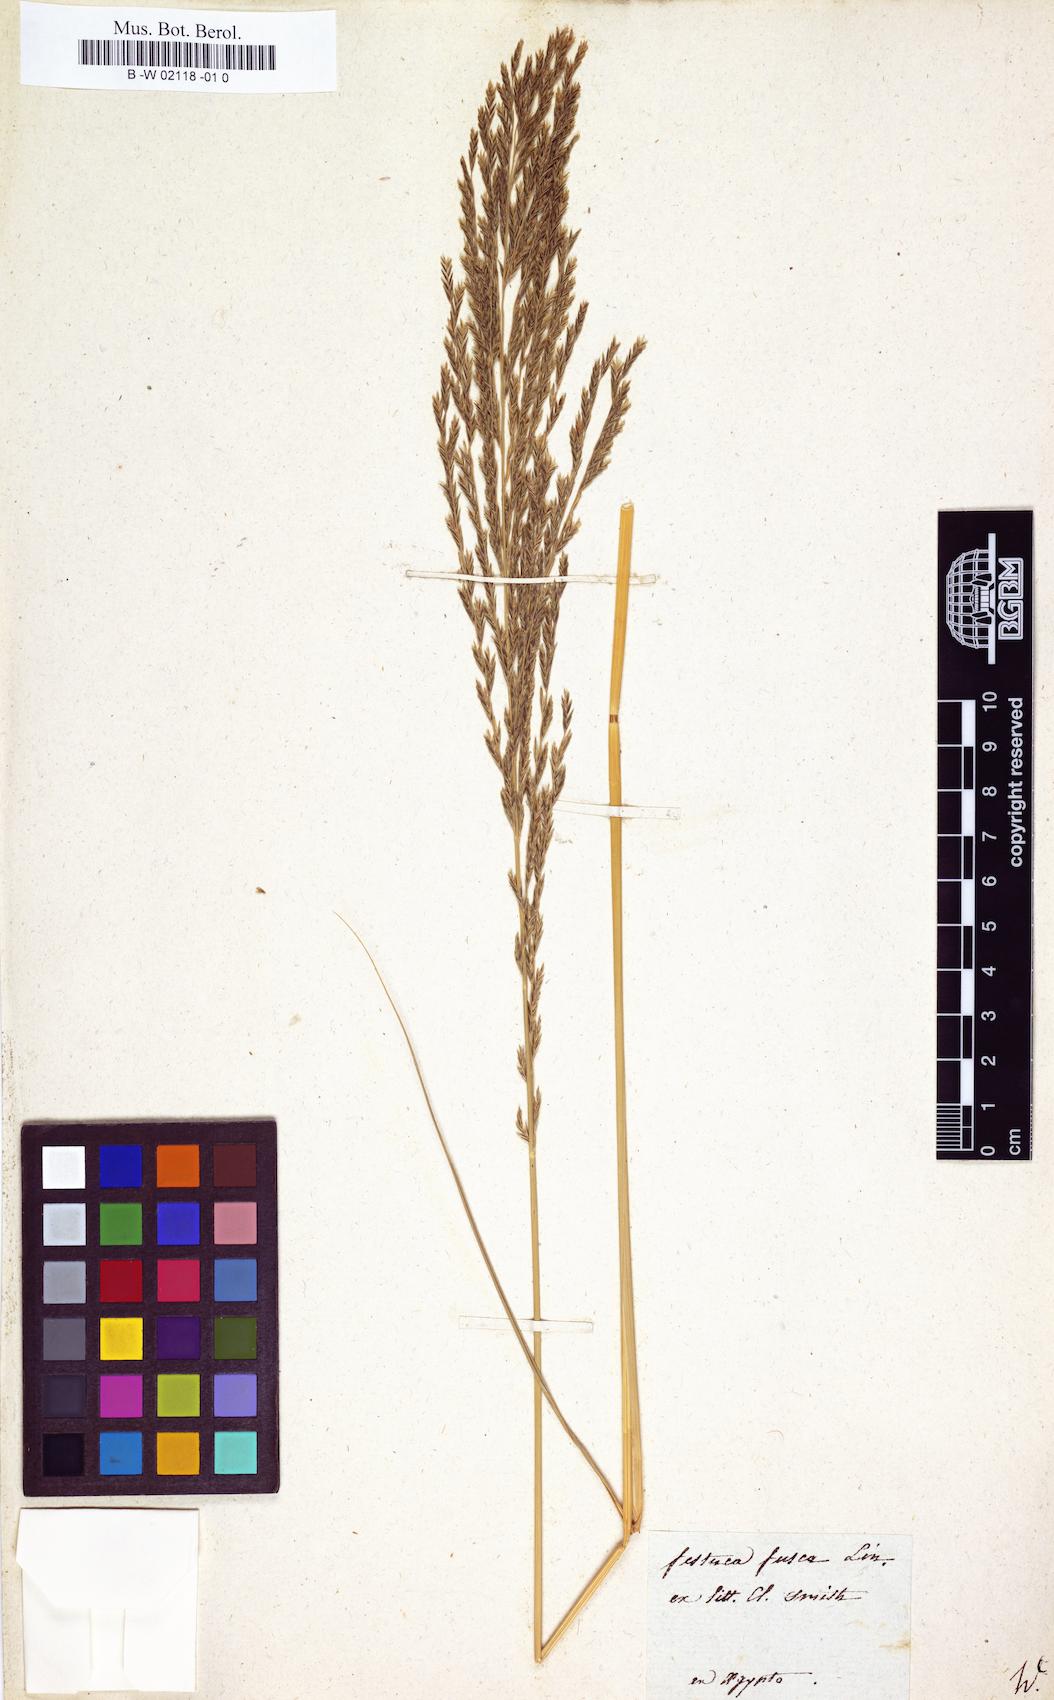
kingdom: Plantae
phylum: Tracheophyta
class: Liliopsida
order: Poales
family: Poaceae
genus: Diplachne
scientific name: Diplachne fusca
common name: Brown beetle grass
